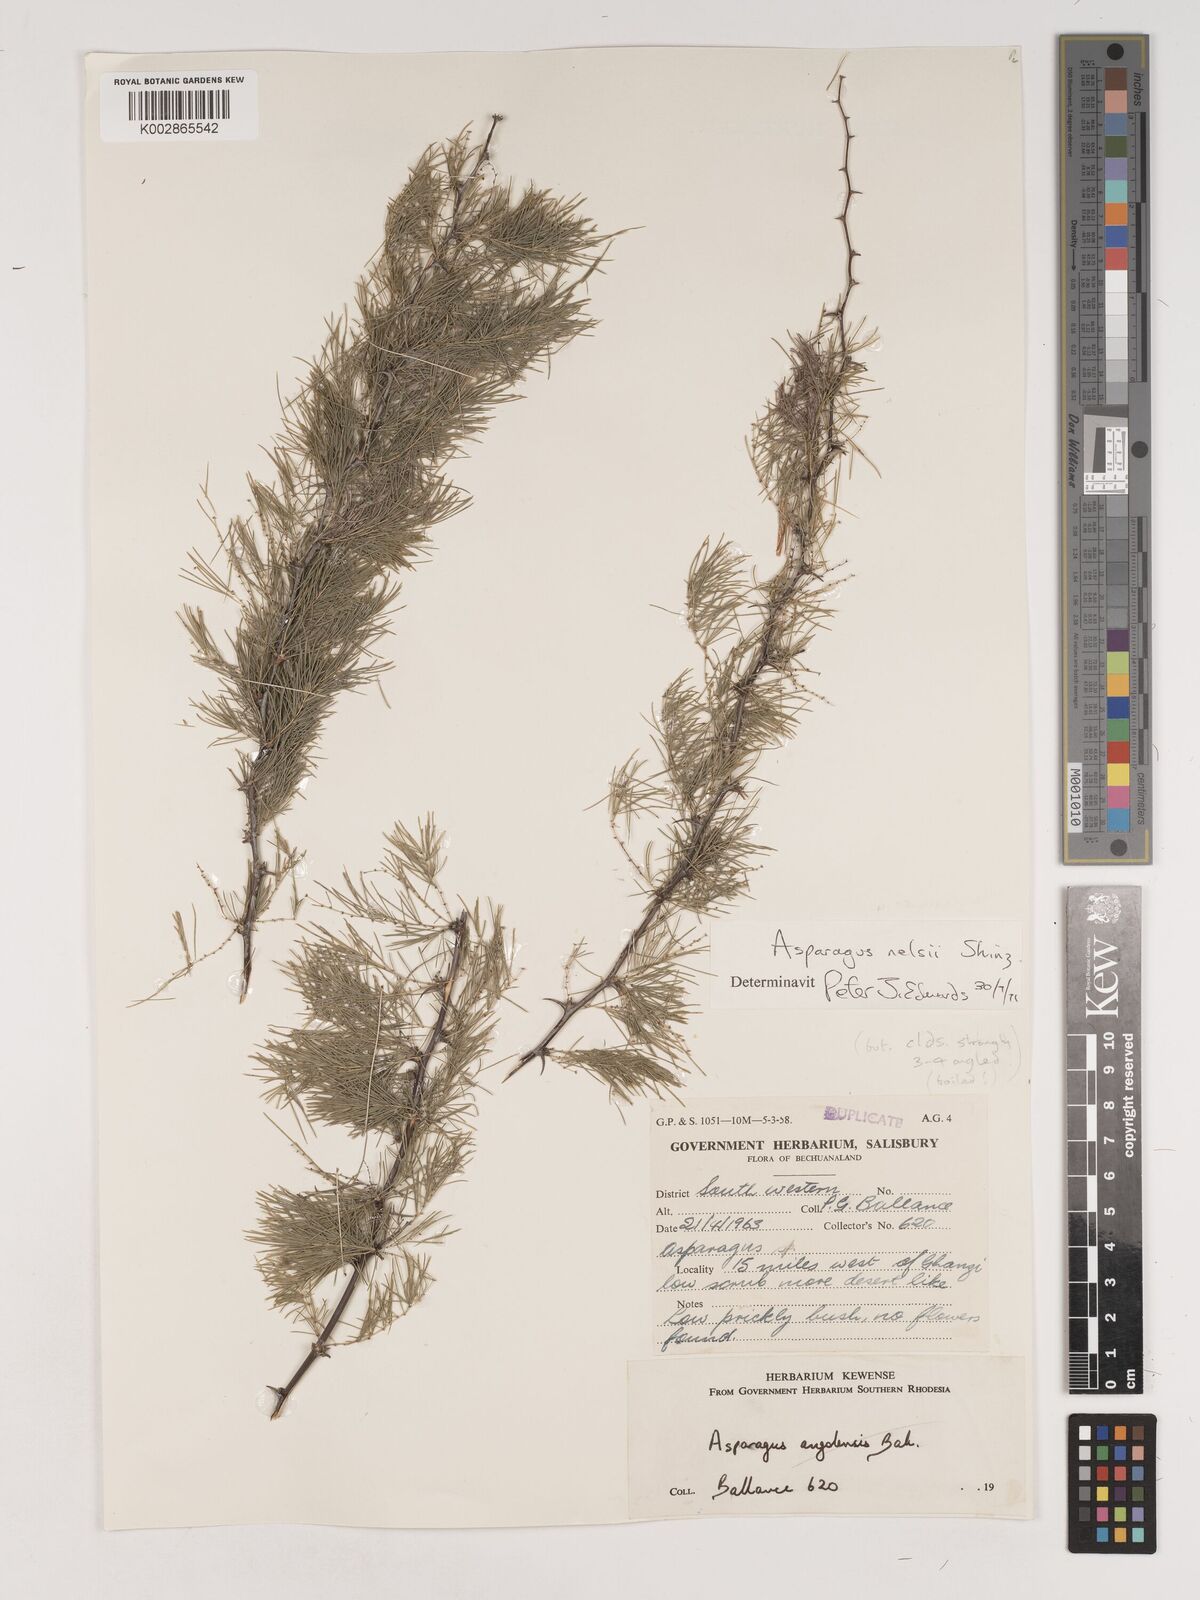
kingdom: Plantae
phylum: Tracheophyta
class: Liliopsida
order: Asparagales
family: Asparagaceae
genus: Asparagus
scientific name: Asparagus nelsii
